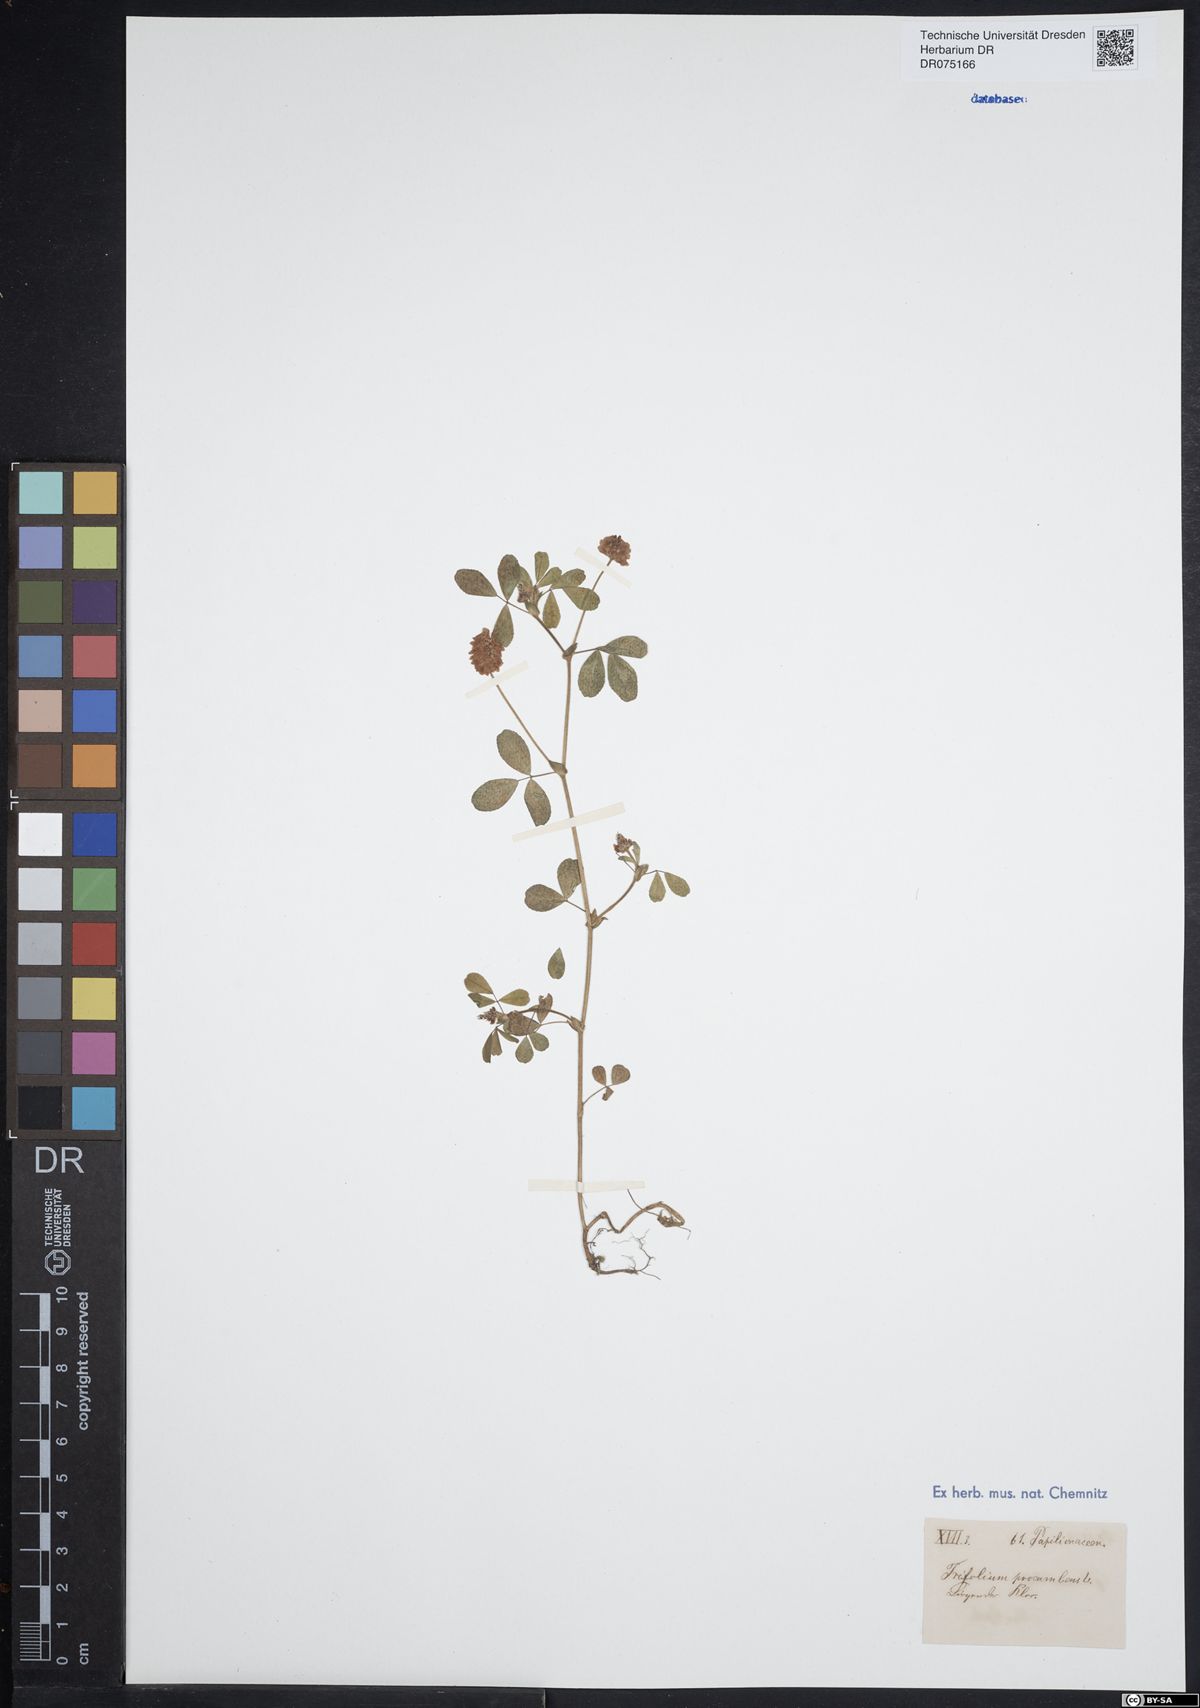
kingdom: Plantae
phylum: Tracheophyta
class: Magnoliopsida
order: Fabales
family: Fabaceae
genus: Trifolium
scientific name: Trifolium campestre
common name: Field clover
